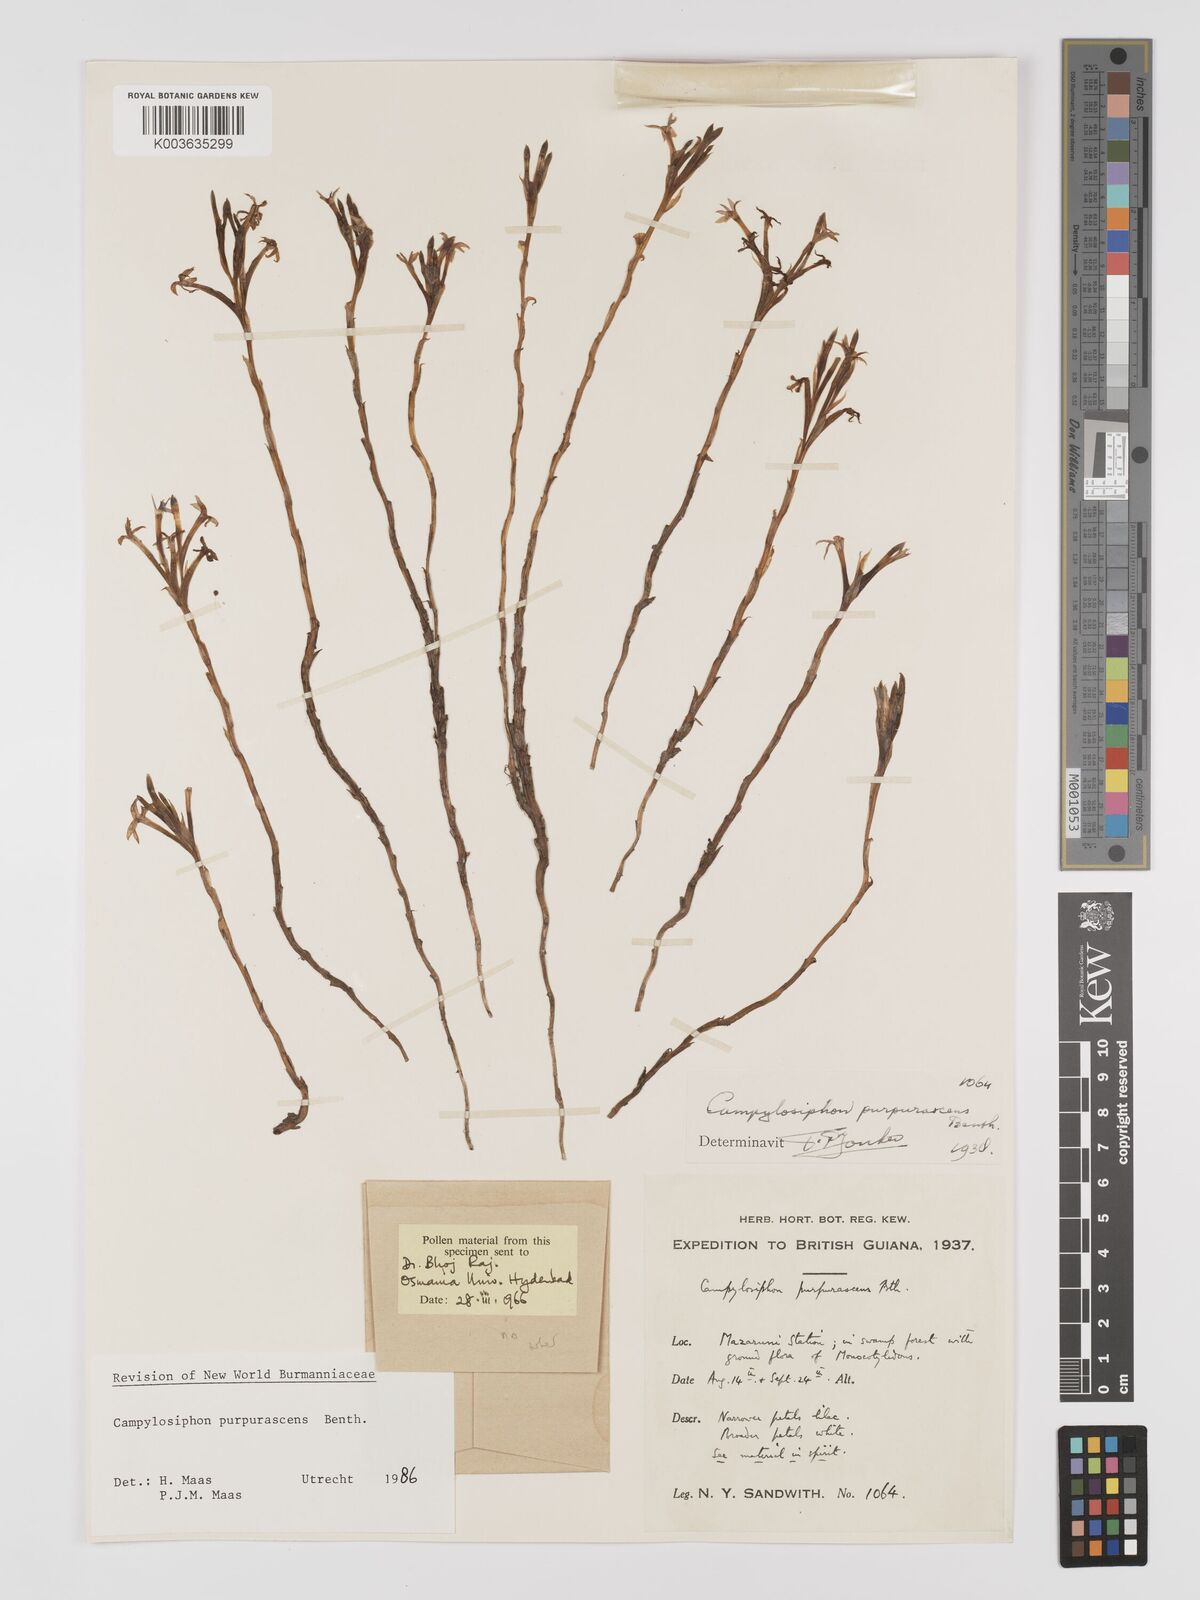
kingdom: Plantae
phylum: Tracheophyta
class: Liliopsida
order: Dioscoreales
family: Burmanniaceae
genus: Campylosiphon
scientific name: Campylosiphon purpurascens
